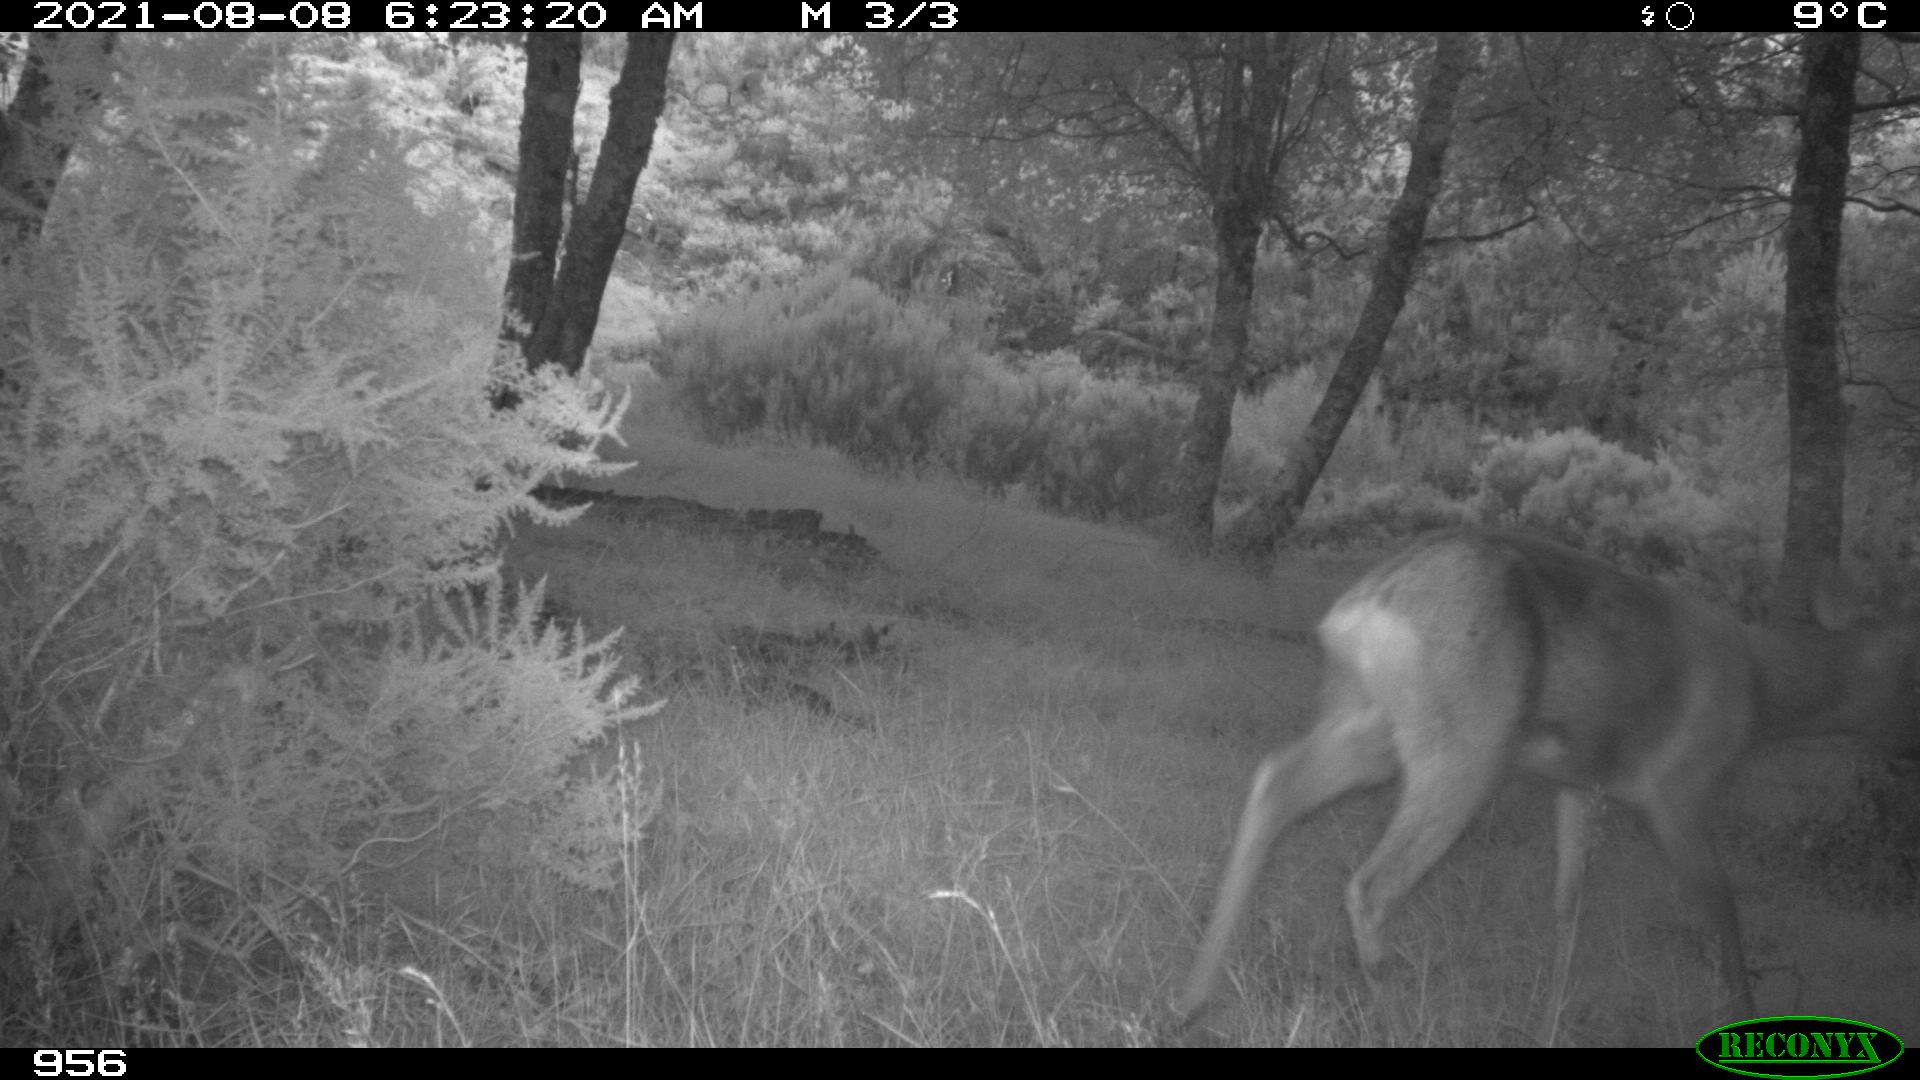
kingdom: Animalia
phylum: Chordata
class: Mammalia
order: Artiodactyla
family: Cervidae
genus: Capreolus
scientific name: Capreolus capreolus
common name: Western roe deer
